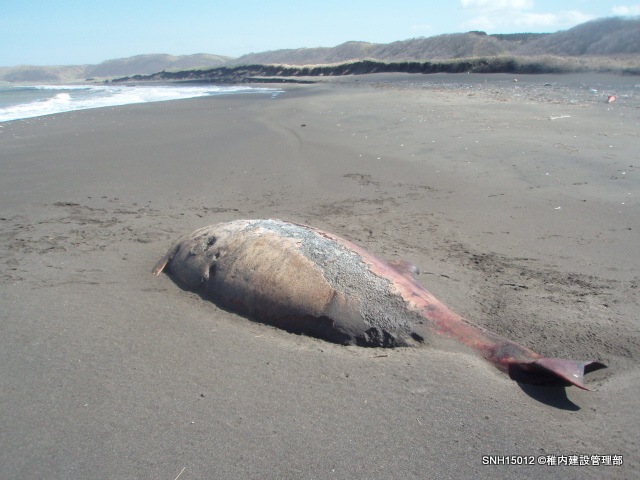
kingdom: Animalia
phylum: Chordata
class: Mammalia
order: Cetacea
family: Hyperoodontidae
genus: Mesoplodon
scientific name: Mesoplodon stejnegeri
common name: Stejneger's beaked whale
